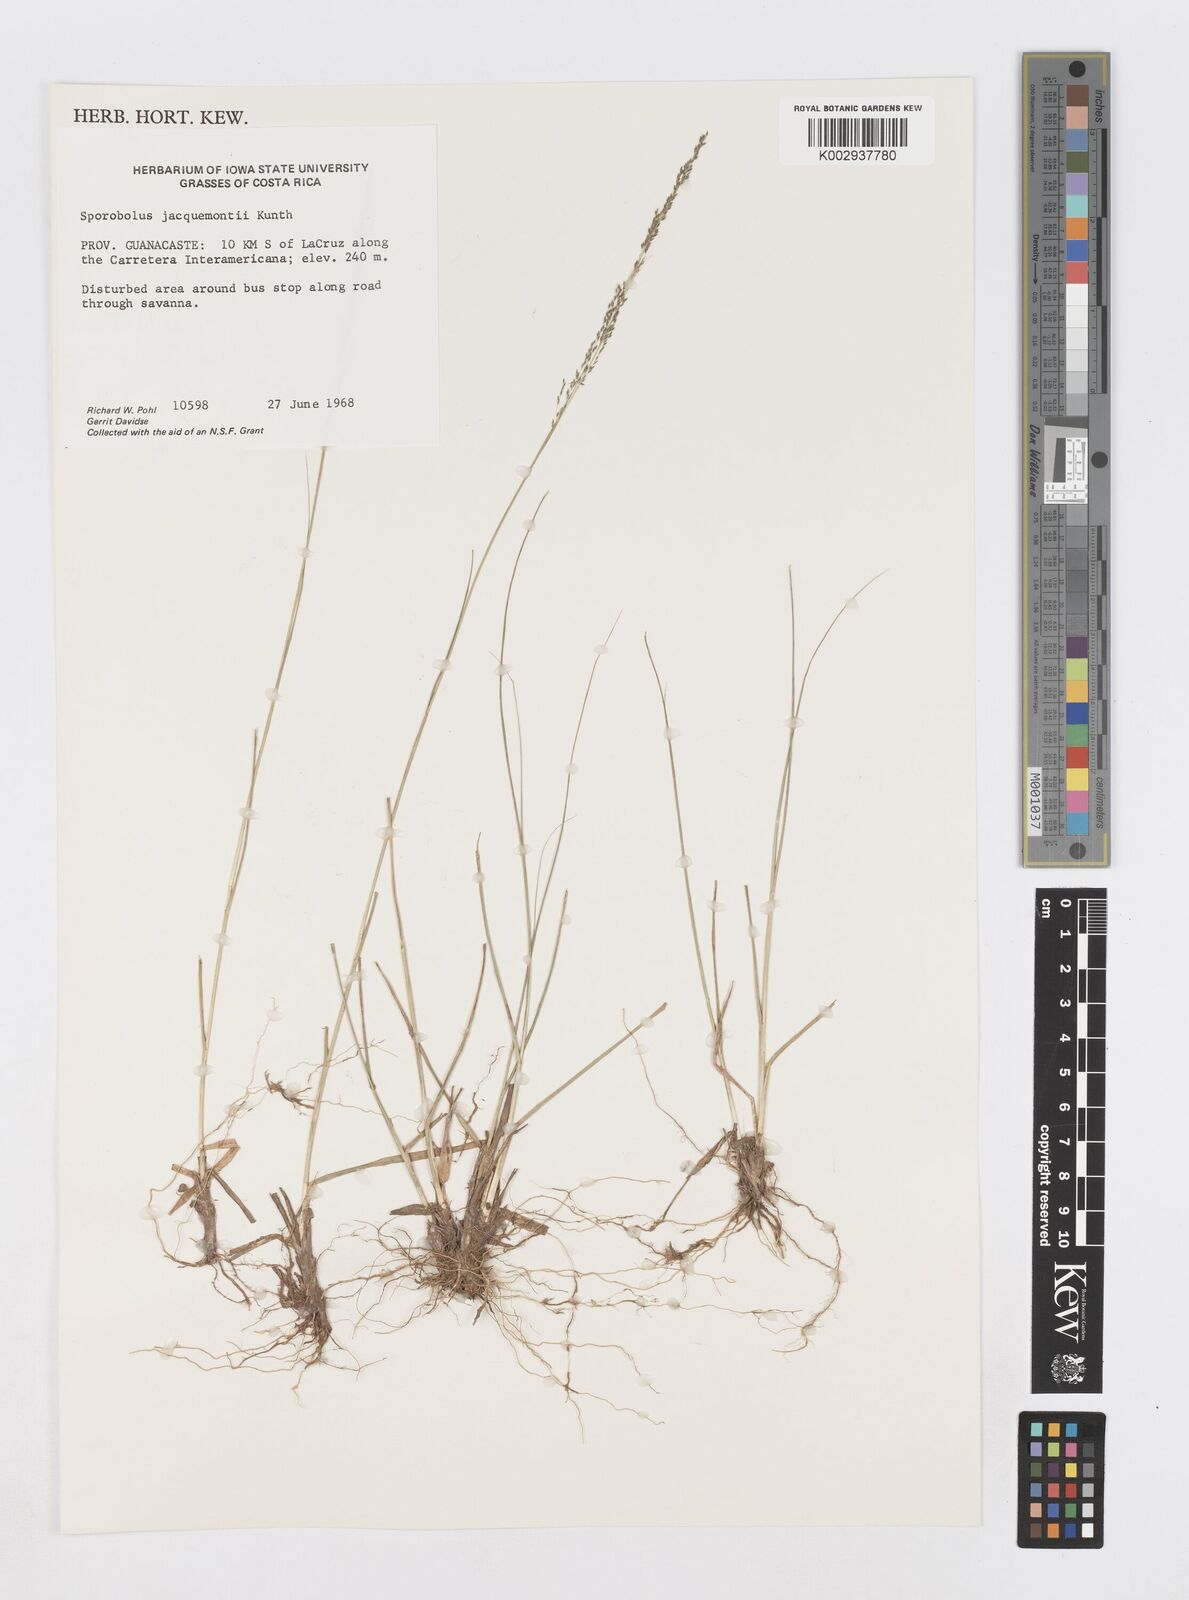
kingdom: Plantae
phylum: Tracheophyta
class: Liliopsida
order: Poales
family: Poaceae
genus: Sporobolus
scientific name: Sporobolus pyramidalis
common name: West indian dropseed
